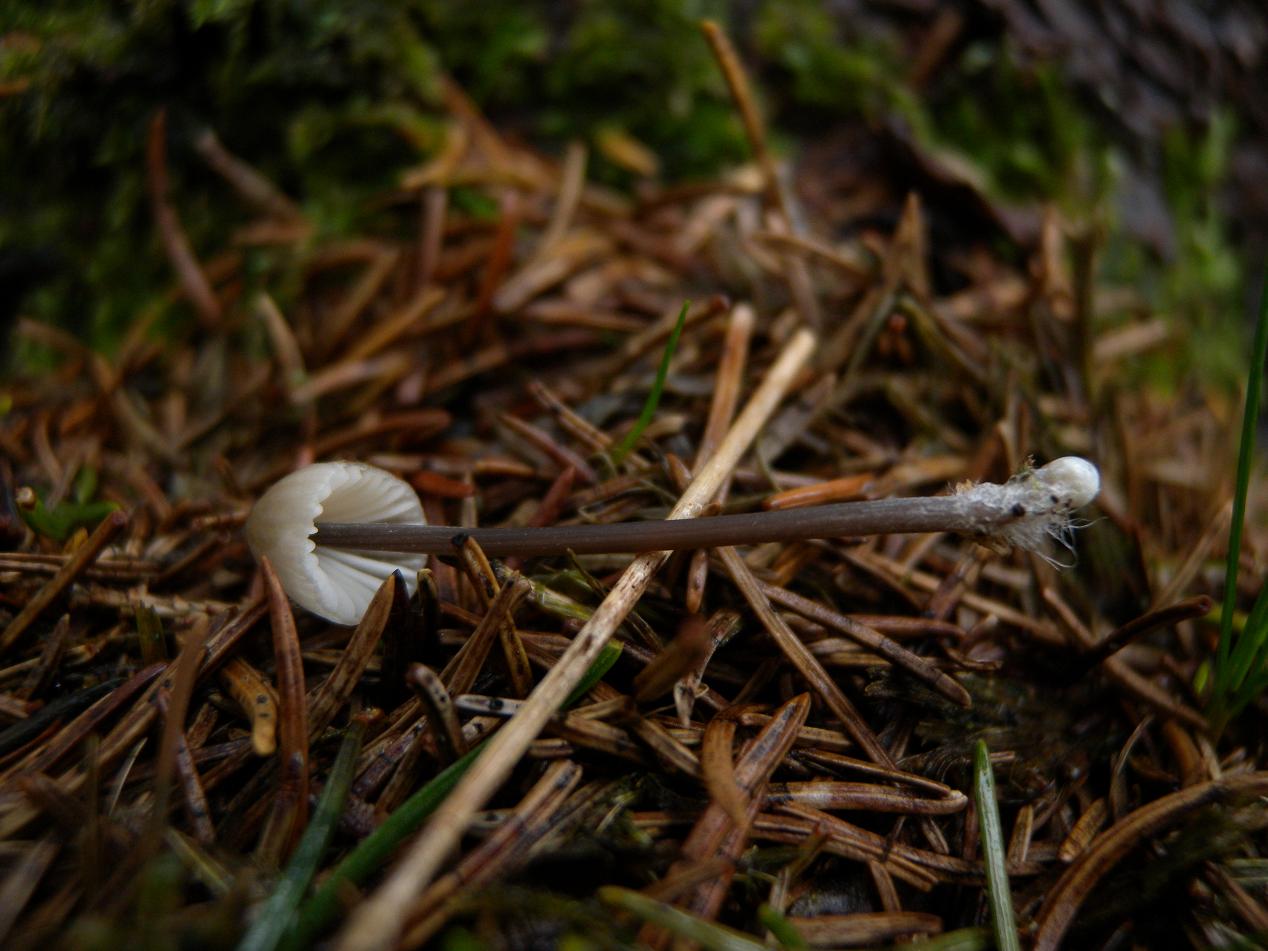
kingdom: Fungi
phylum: Basidiomycota
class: Agaricomycetes
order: Agaricales
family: Mycenaceae
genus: Mycena
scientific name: Mycena galopus
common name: hvidmælket huesvamp
